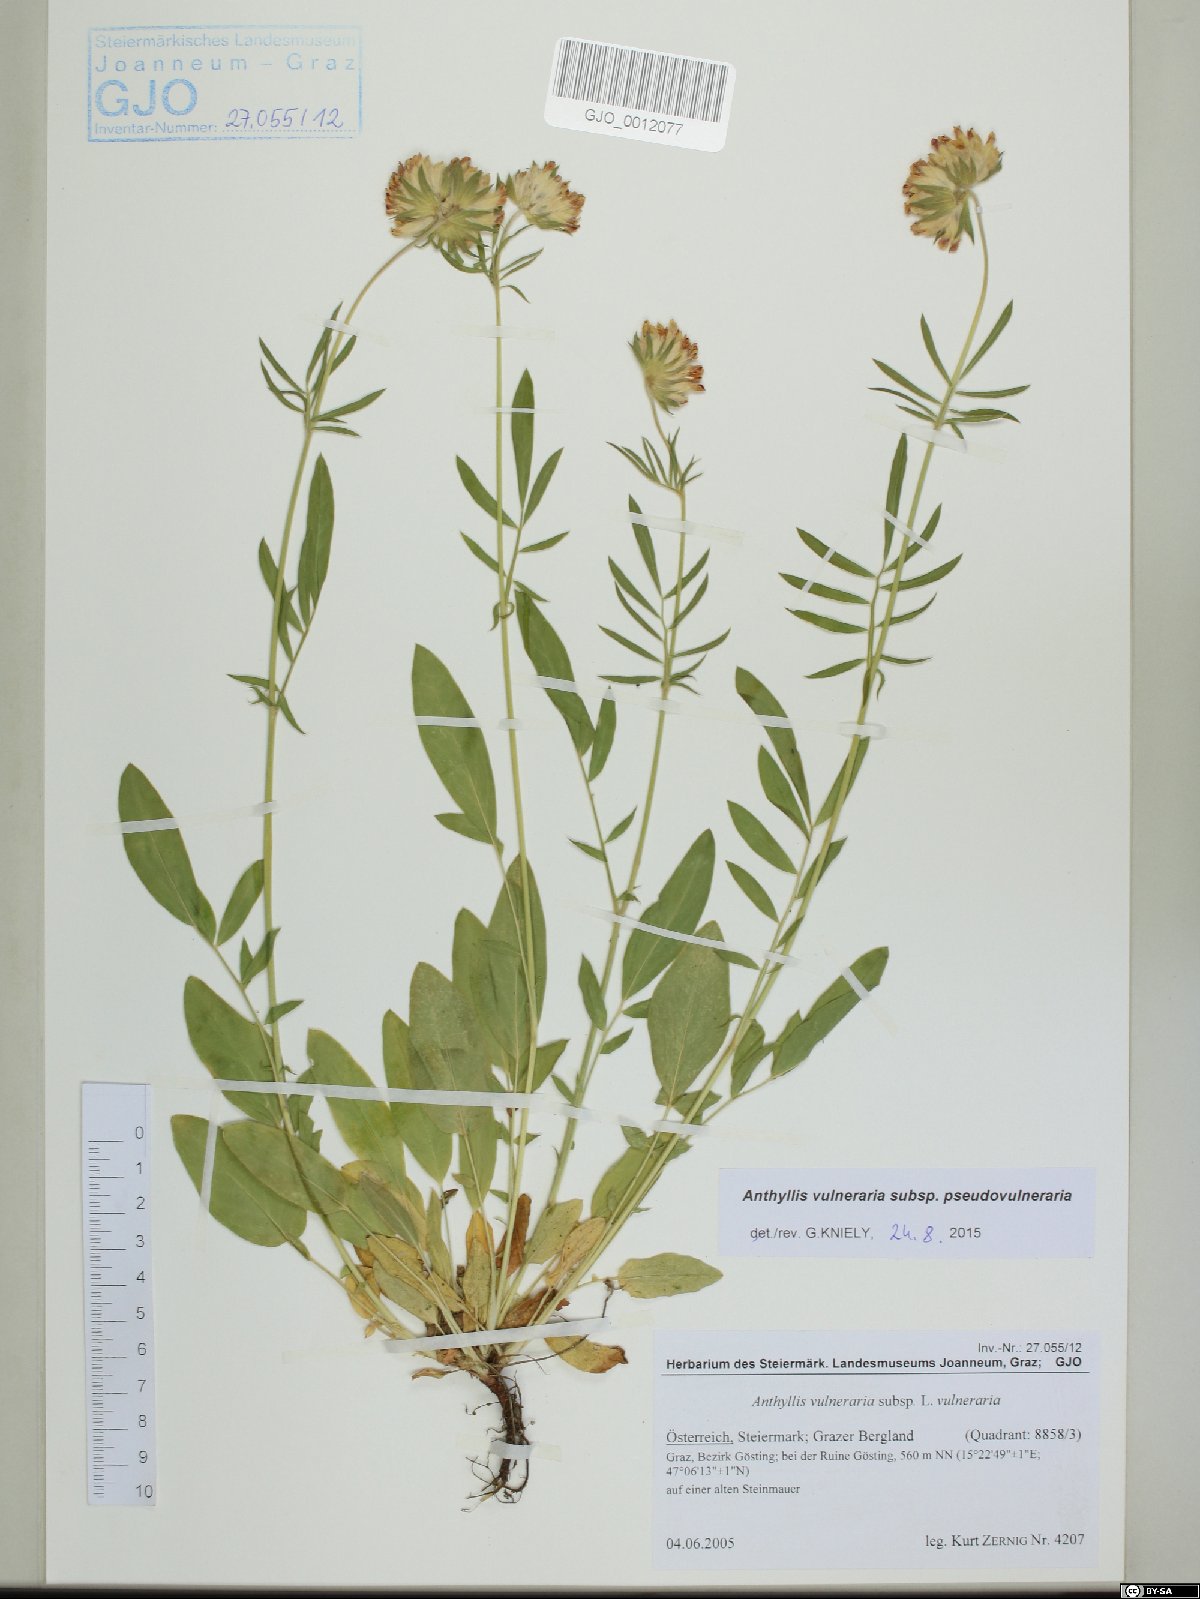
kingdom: Plantae
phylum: Tracheophyta
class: Magnoliopsida
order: Fabales
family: Fabaceae
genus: Anthyllis
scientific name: Anthyllis vulneraria
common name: Kidney vetch
